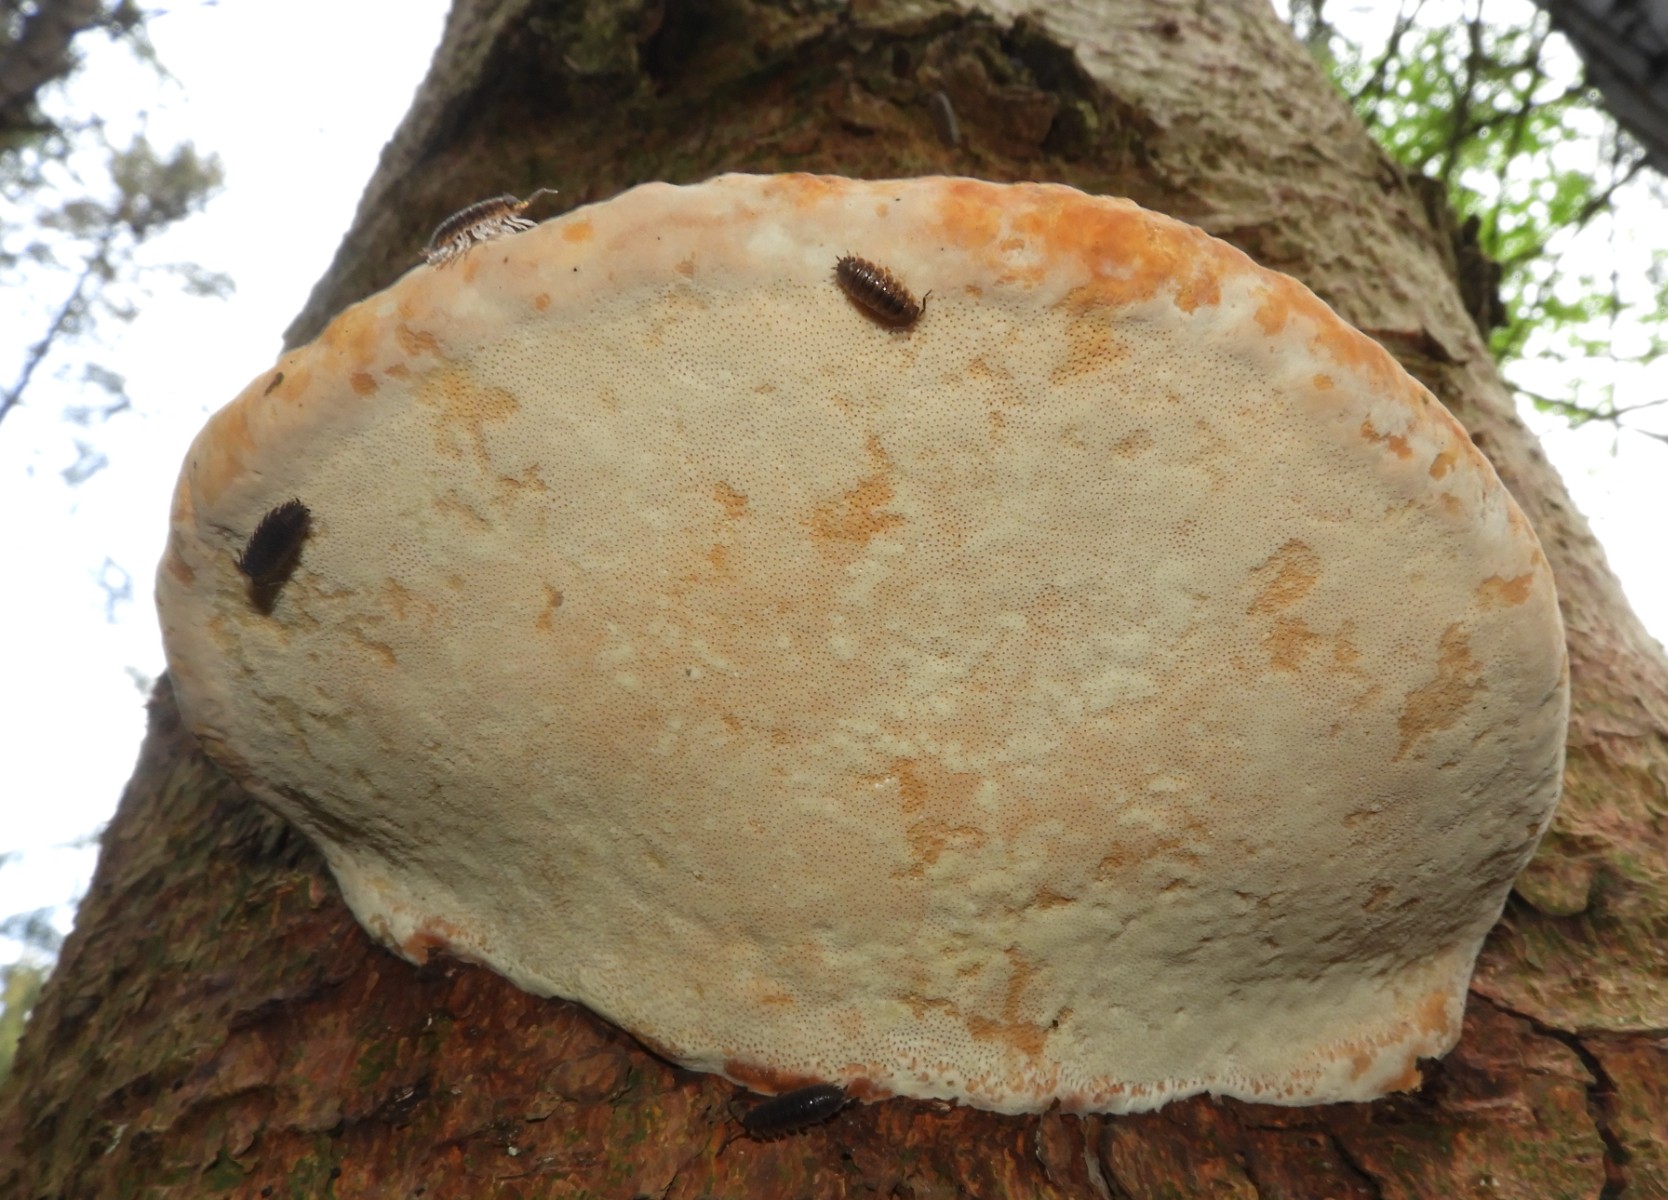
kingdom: Fungi
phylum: Basidiomycota
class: Agaricomycetes
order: Polyporales
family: Fomitopsidaceae
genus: Fomitopsis
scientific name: Fomitopsis pinicola
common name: randbæltet hovporesvamp
